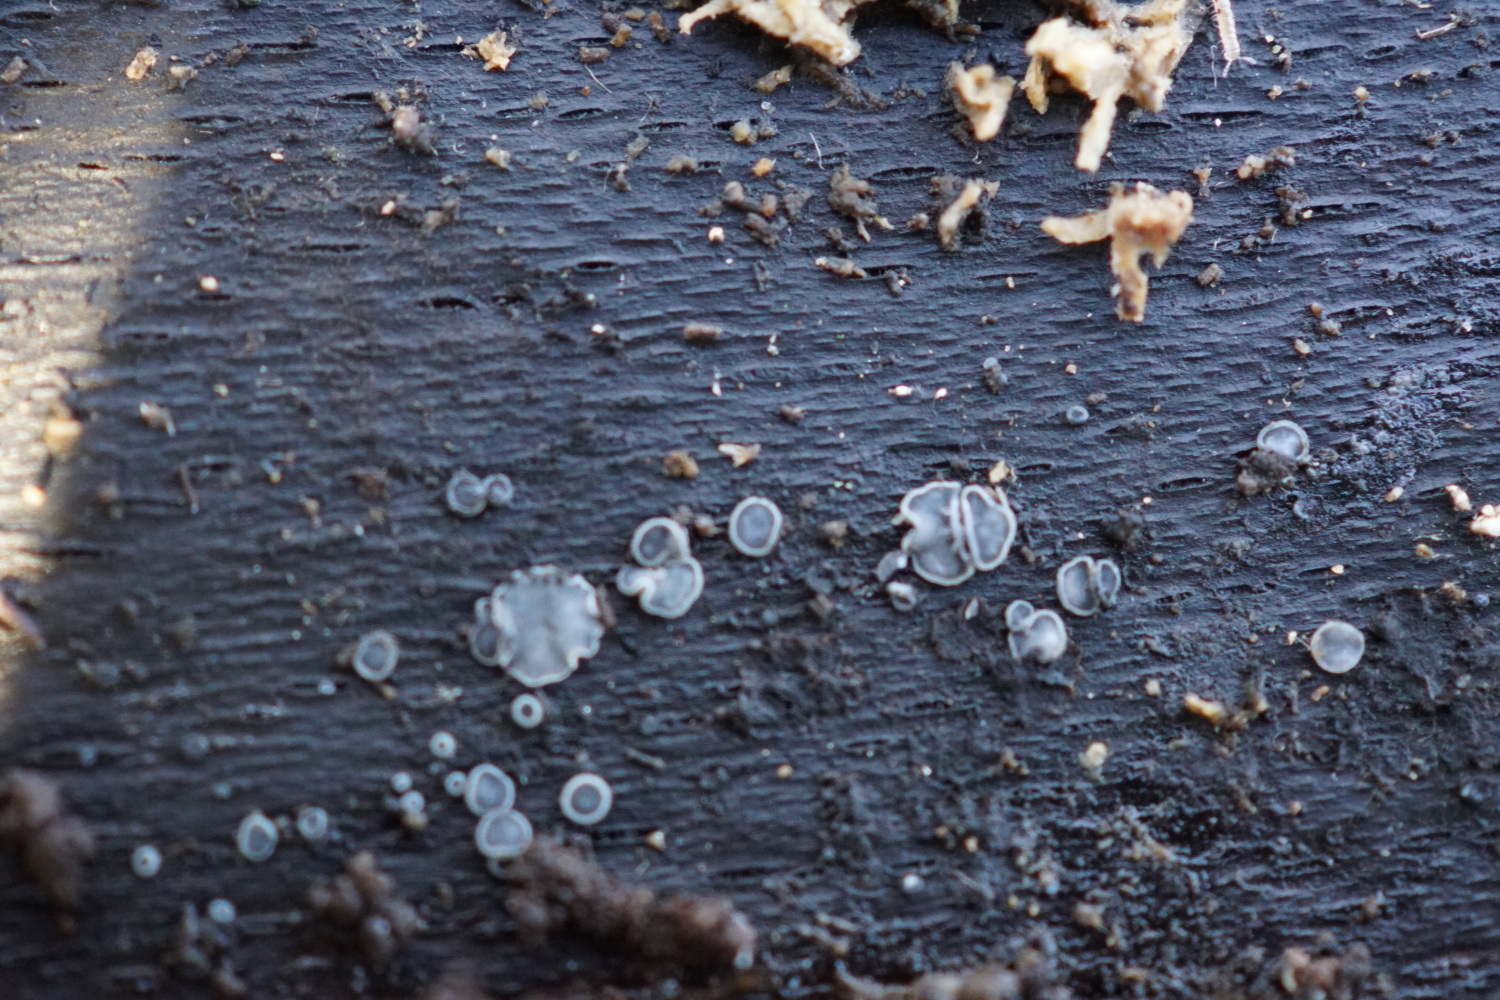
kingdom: Fungi
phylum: Ascomycota
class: Leotiomycetes
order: Helotiales
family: Mollisiaceae
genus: Mollisia
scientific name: Mollisia cinerea
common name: almindelig gråskive
